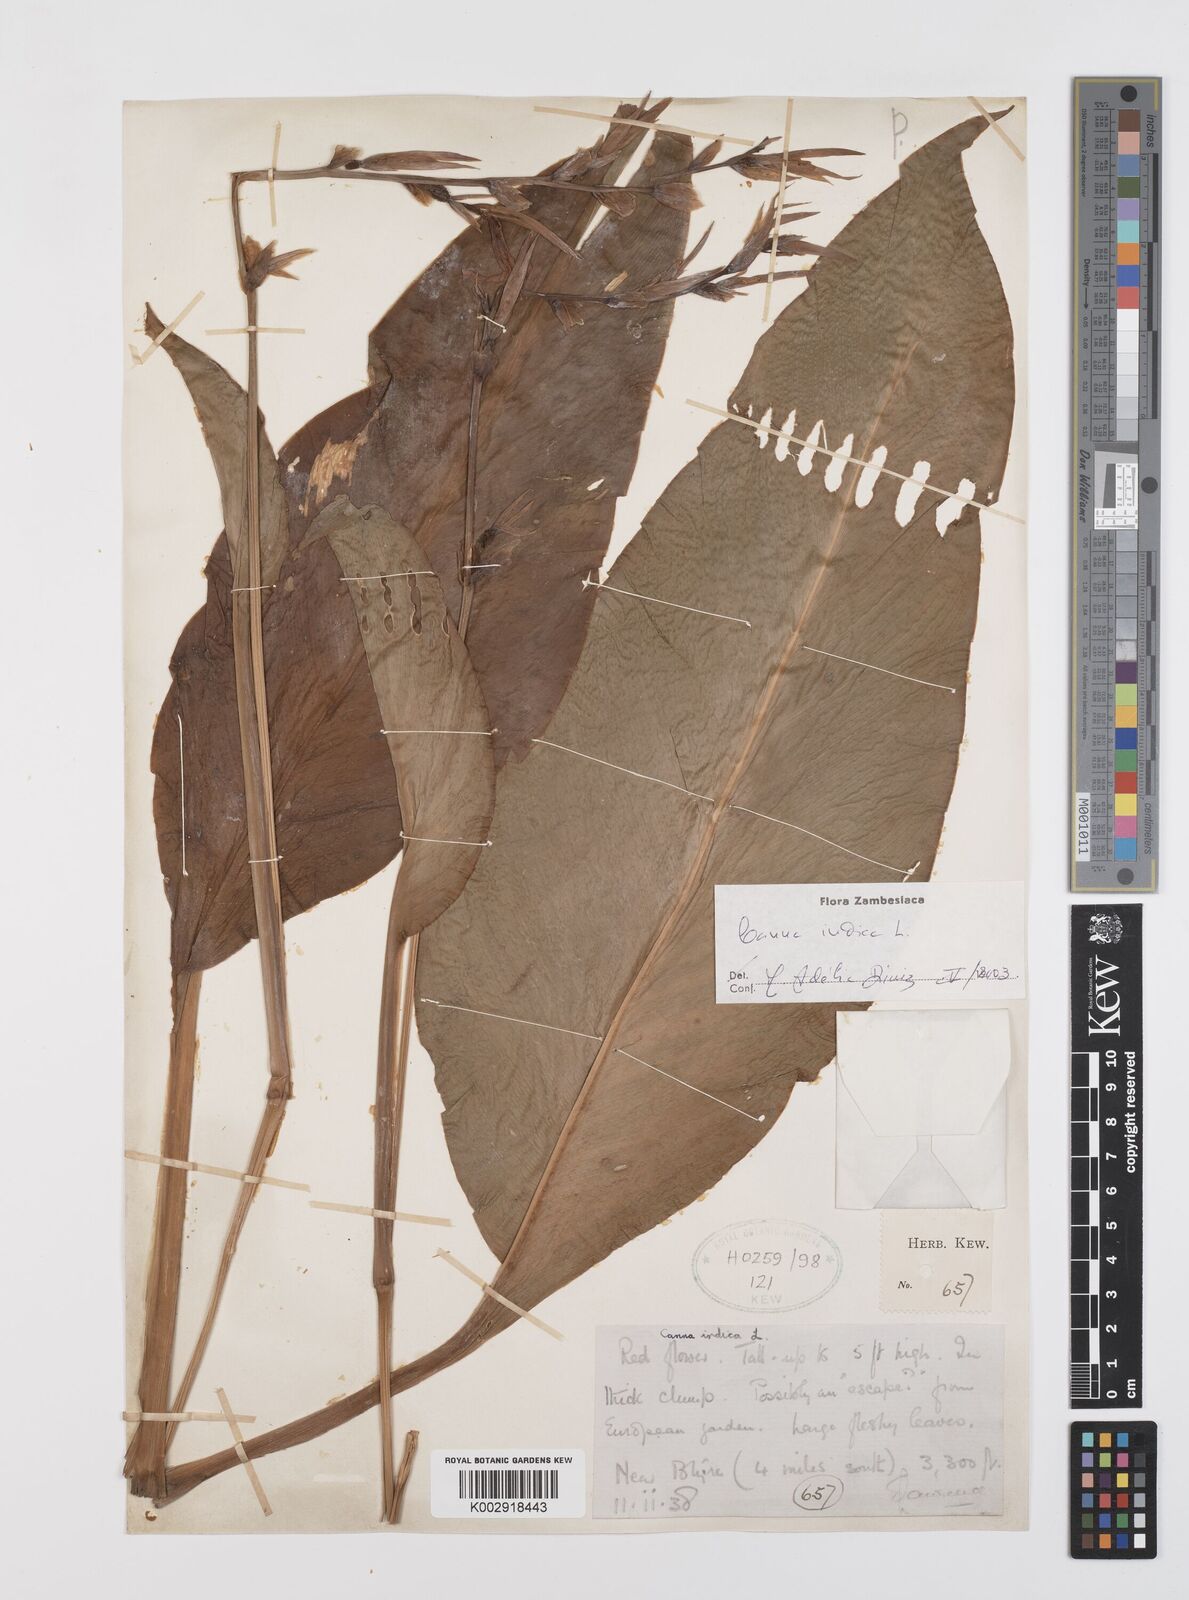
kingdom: Plantae
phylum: Tracheophyta
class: Liliopsida
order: Zingiberales
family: Cannaceae
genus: Canna
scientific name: Canna indica
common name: Indian shot
